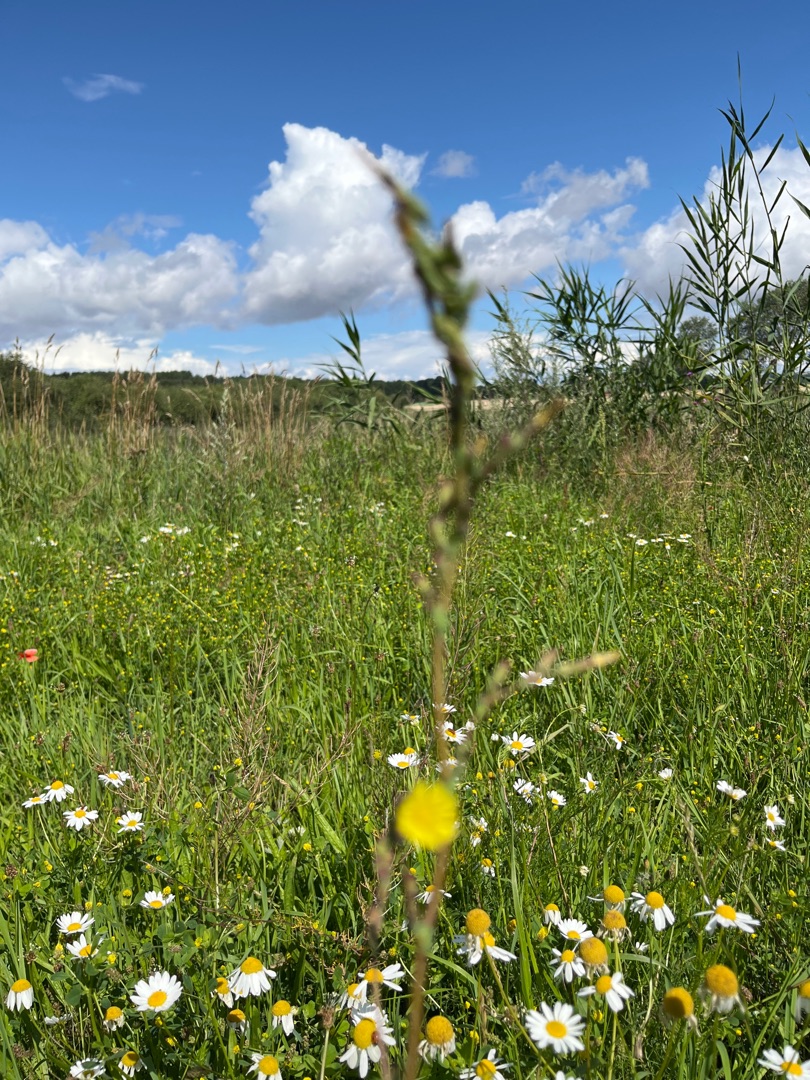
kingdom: Plantae
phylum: Tracheophyta
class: Magnoliopsida
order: Asterales
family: Asteraceae
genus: Lactuca
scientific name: Lactuca serriola
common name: Tornet salat
